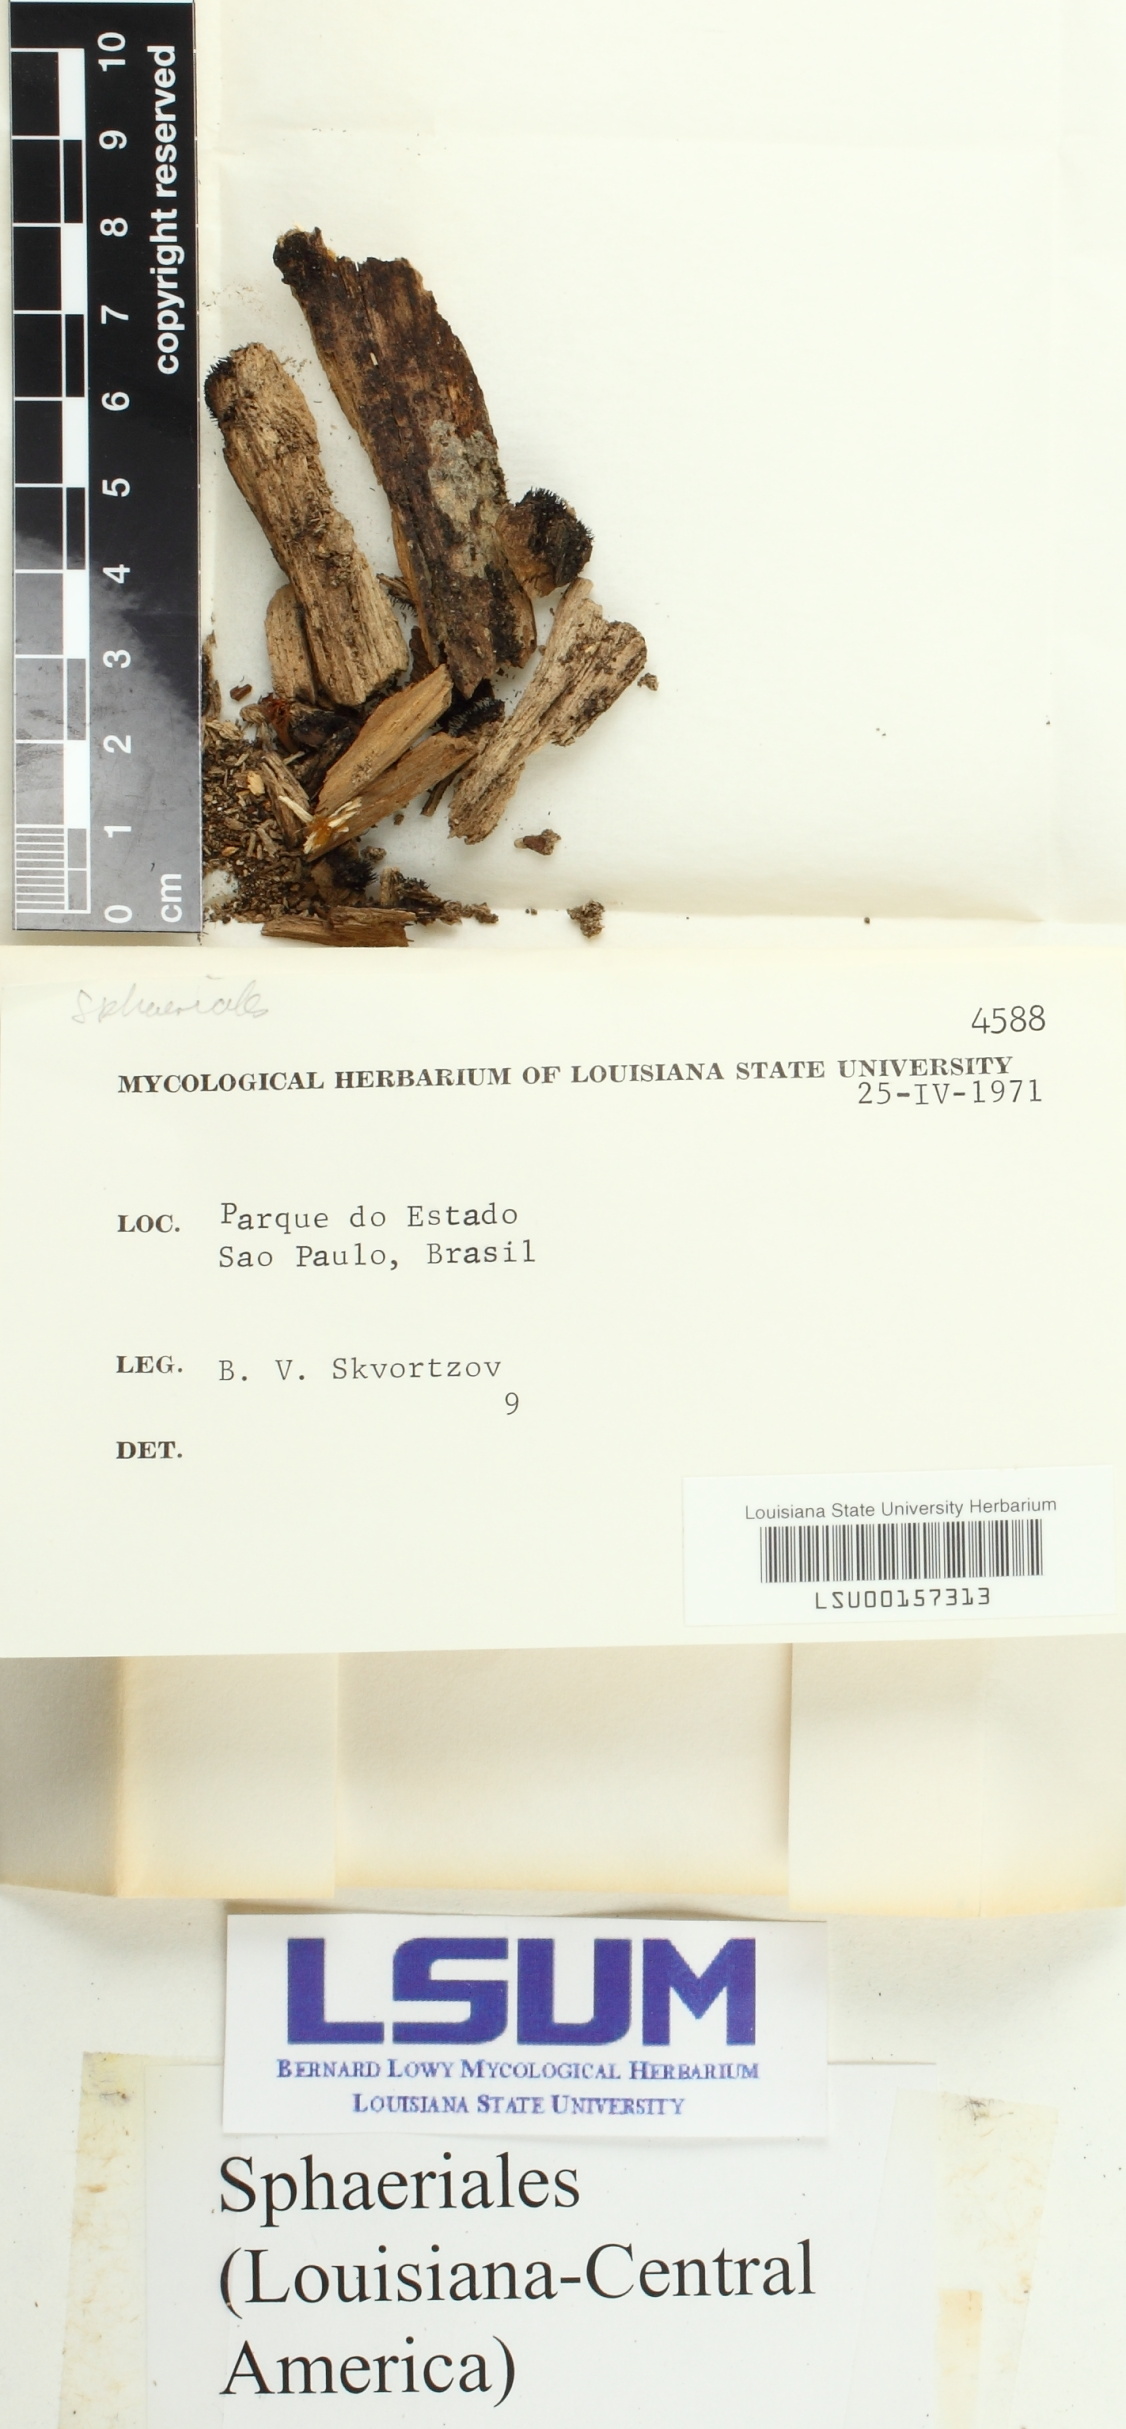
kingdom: Fungi
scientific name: Fungi
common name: Fungi
